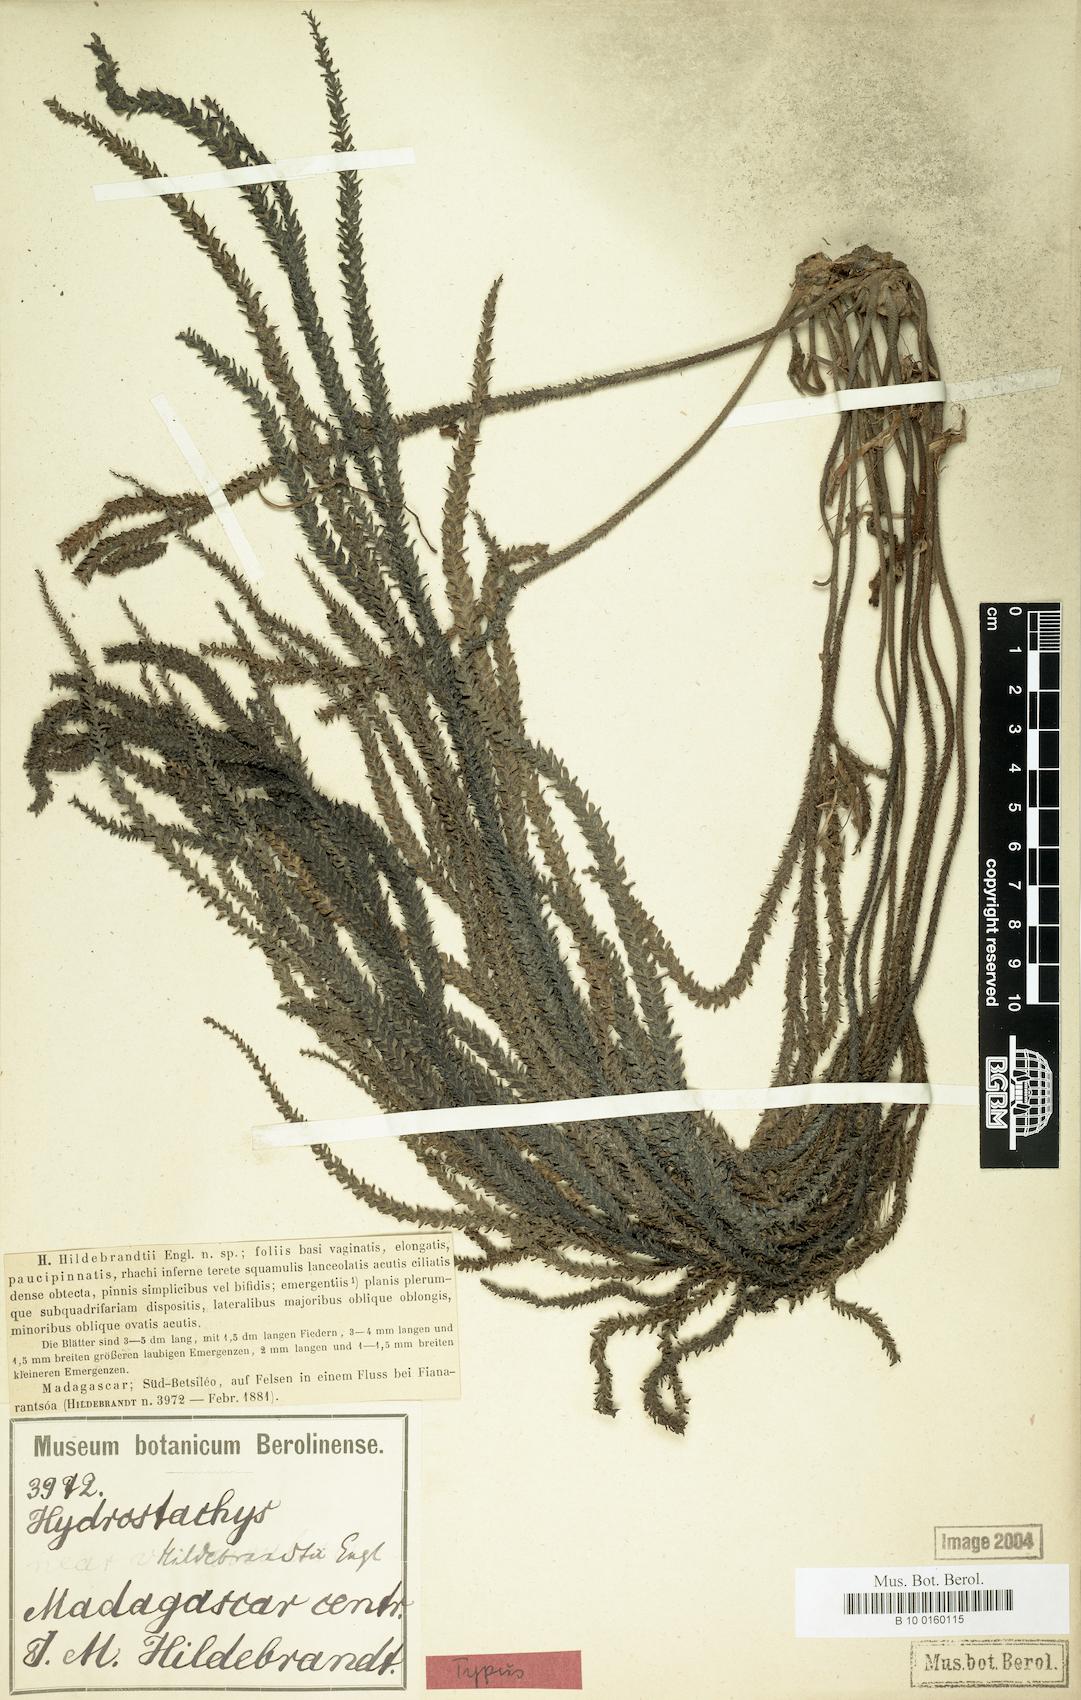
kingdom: Plantae
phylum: Tracheophyta
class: Magnoliopsida
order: Cornales
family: Hydrostachyaceae
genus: Hydrostachys
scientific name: Hydrostachys distichophylla
